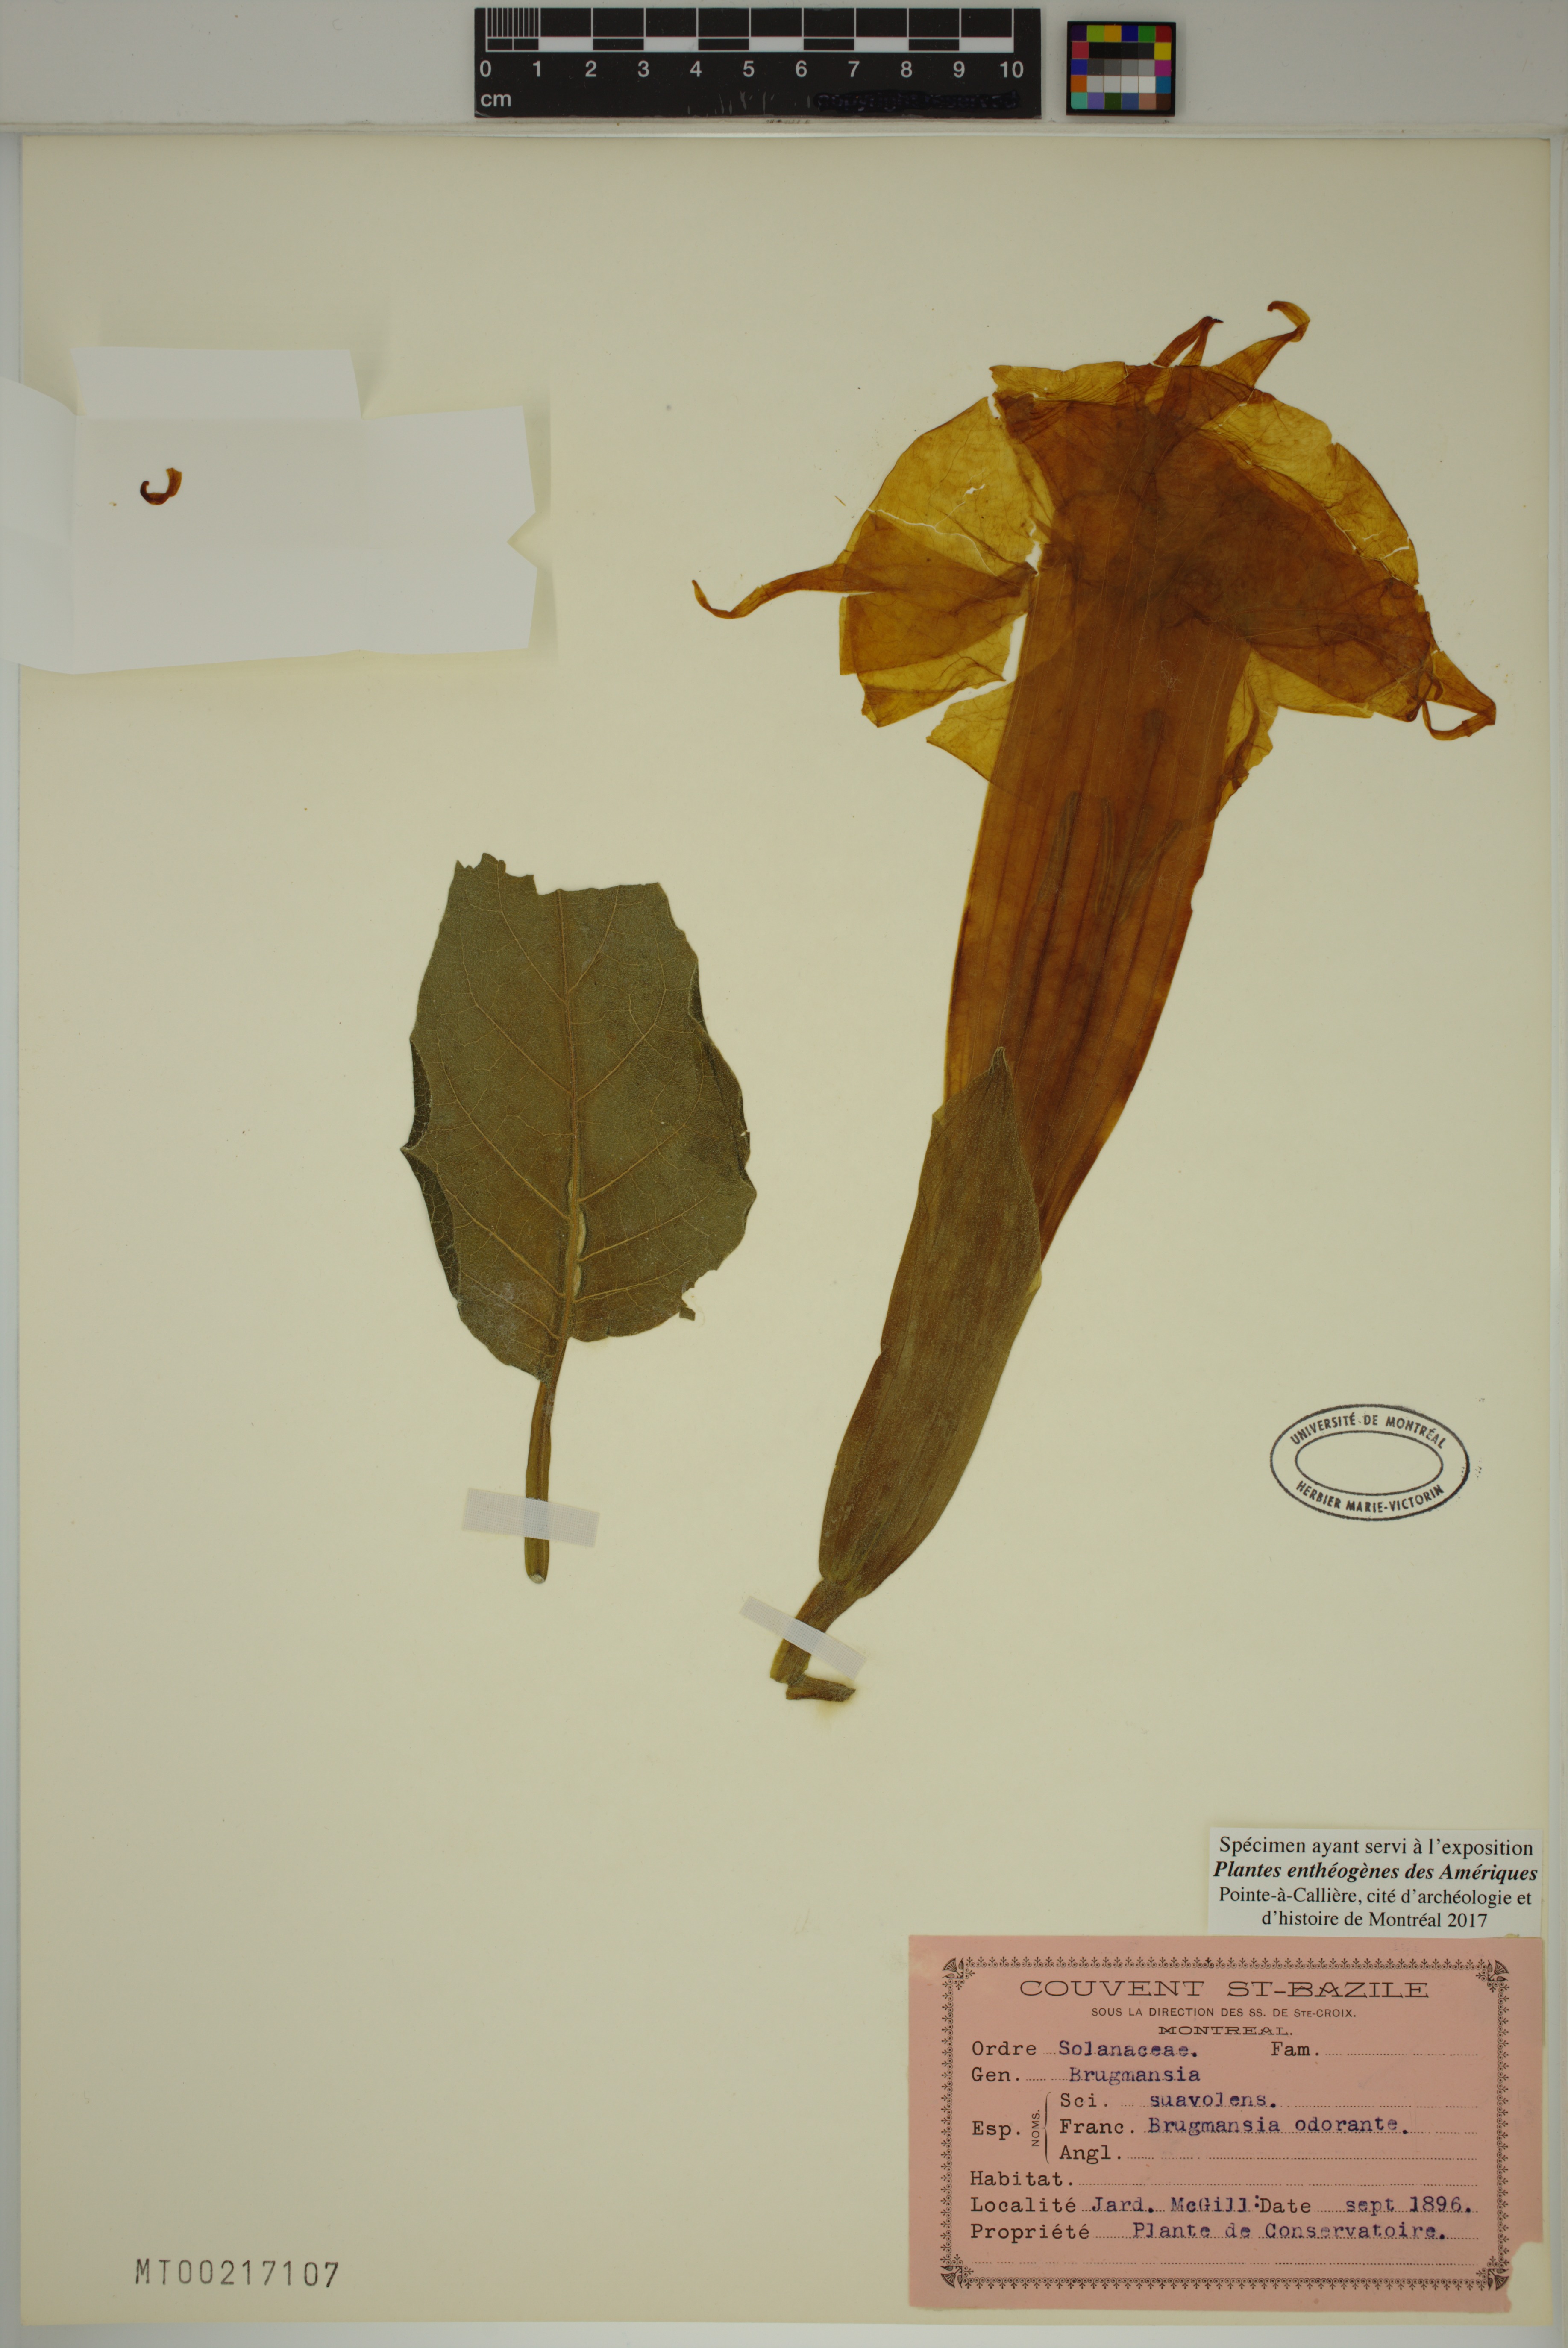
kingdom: Plantae
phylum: Tracheophyta
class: Magnoliopsida
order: Solanales
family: Solanaceae
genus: Brugmansia
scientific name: Brugmansia suaveolens
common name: Angel's tears
